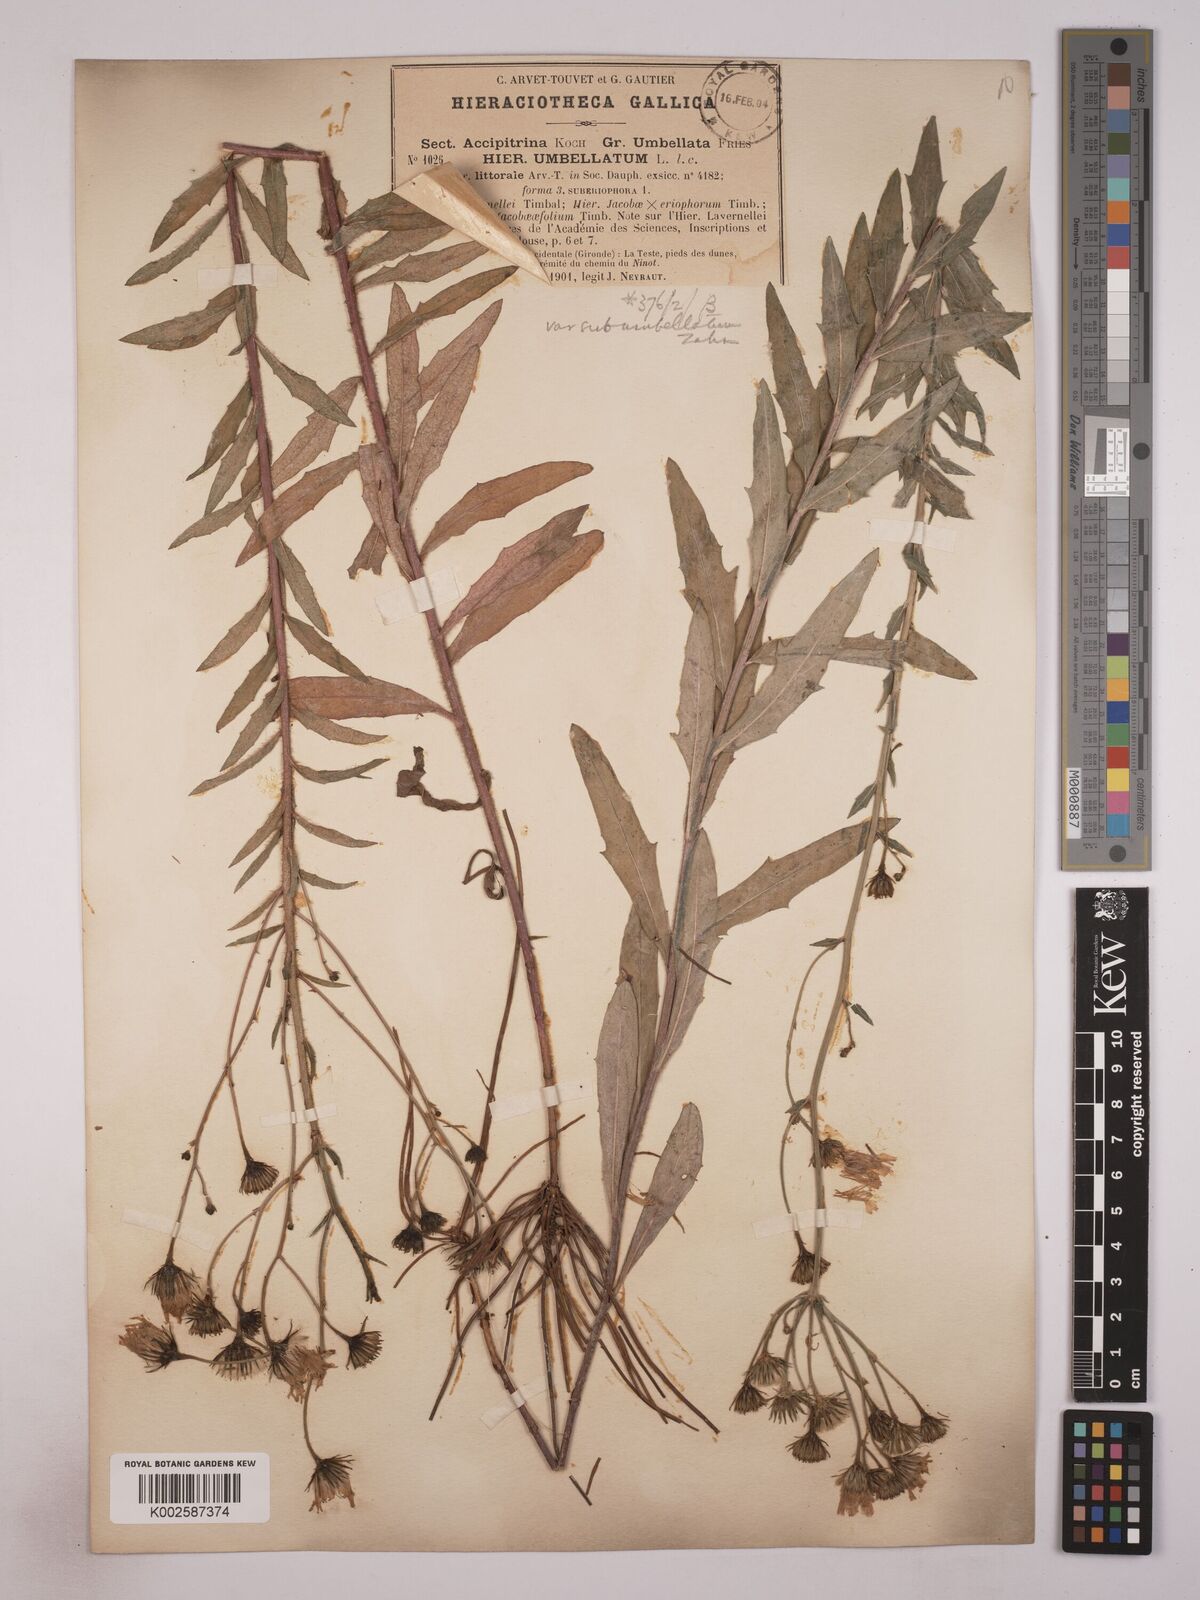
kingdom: Plantae
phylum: Tracheophyta
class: Magnoliopsida
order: Asterales
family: Asteraceae
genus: Hieracium
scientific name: Hieracium prostratum
